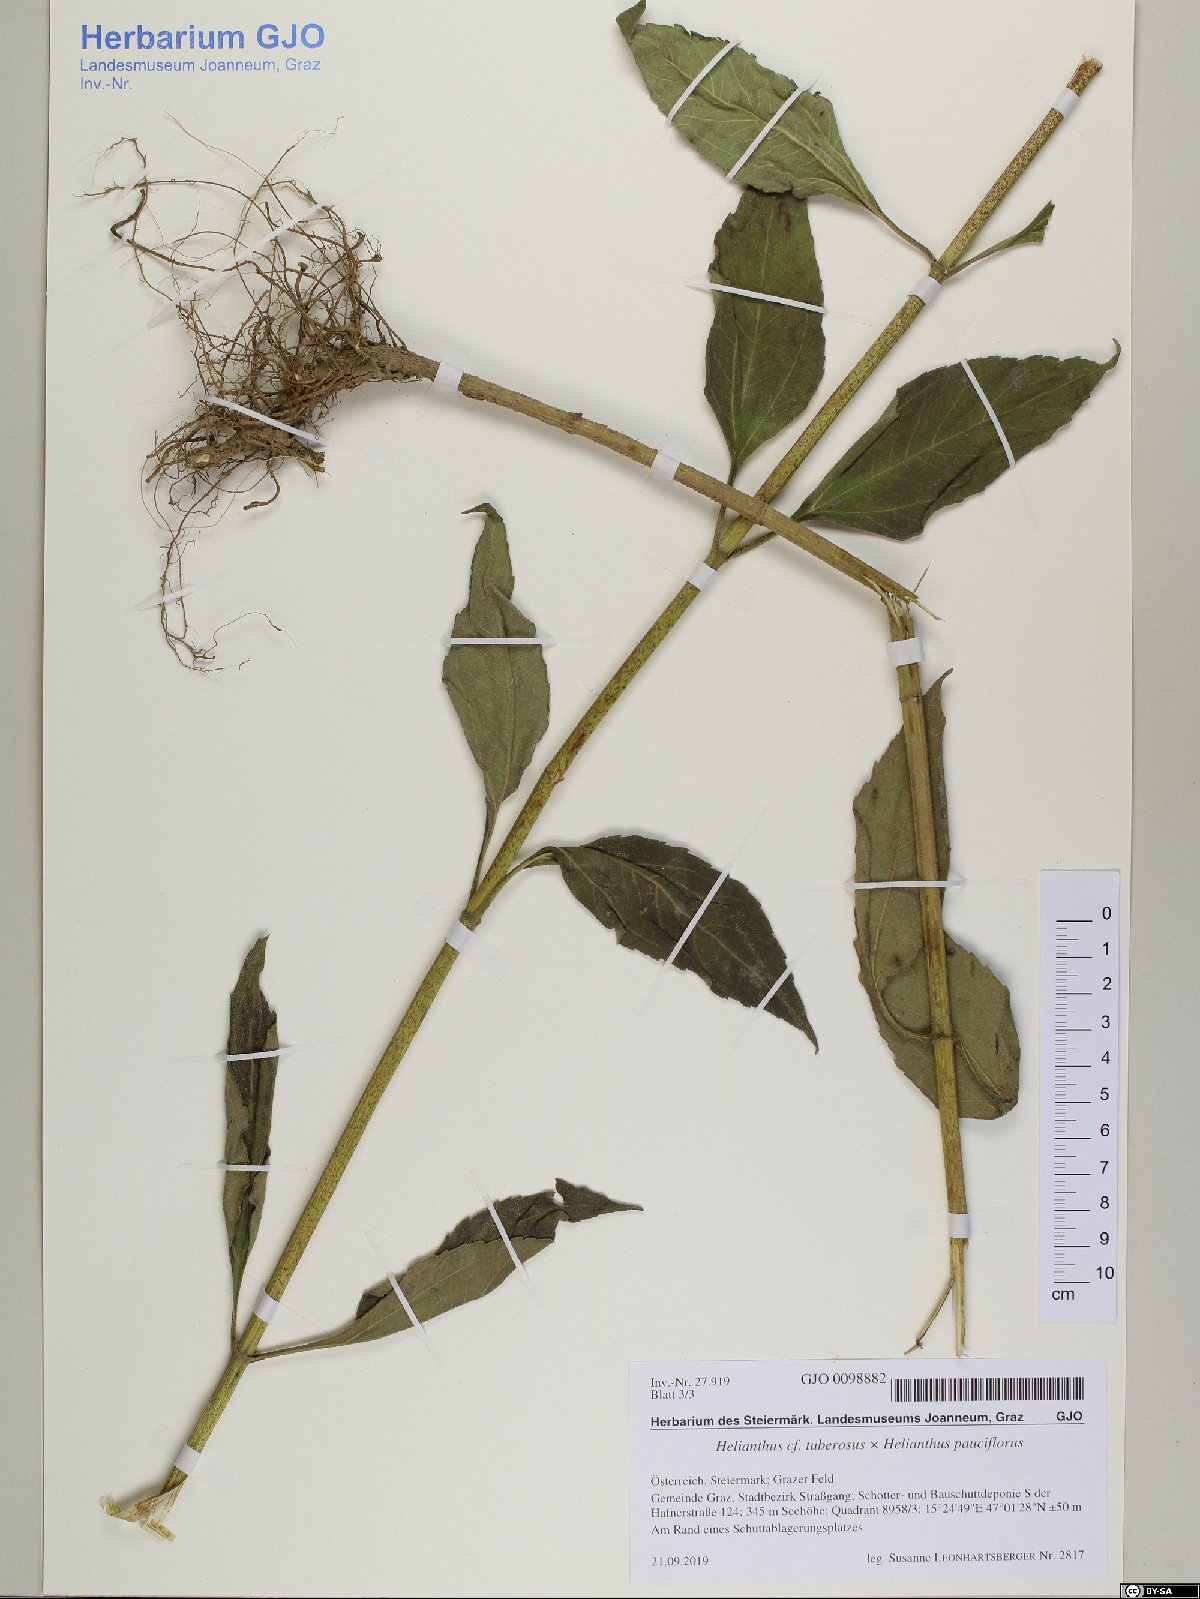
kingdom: Plantae
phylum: Tracheophyta
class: Magnoliopsida
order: Asterales
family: Asteraceae
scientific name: Asteraceae
